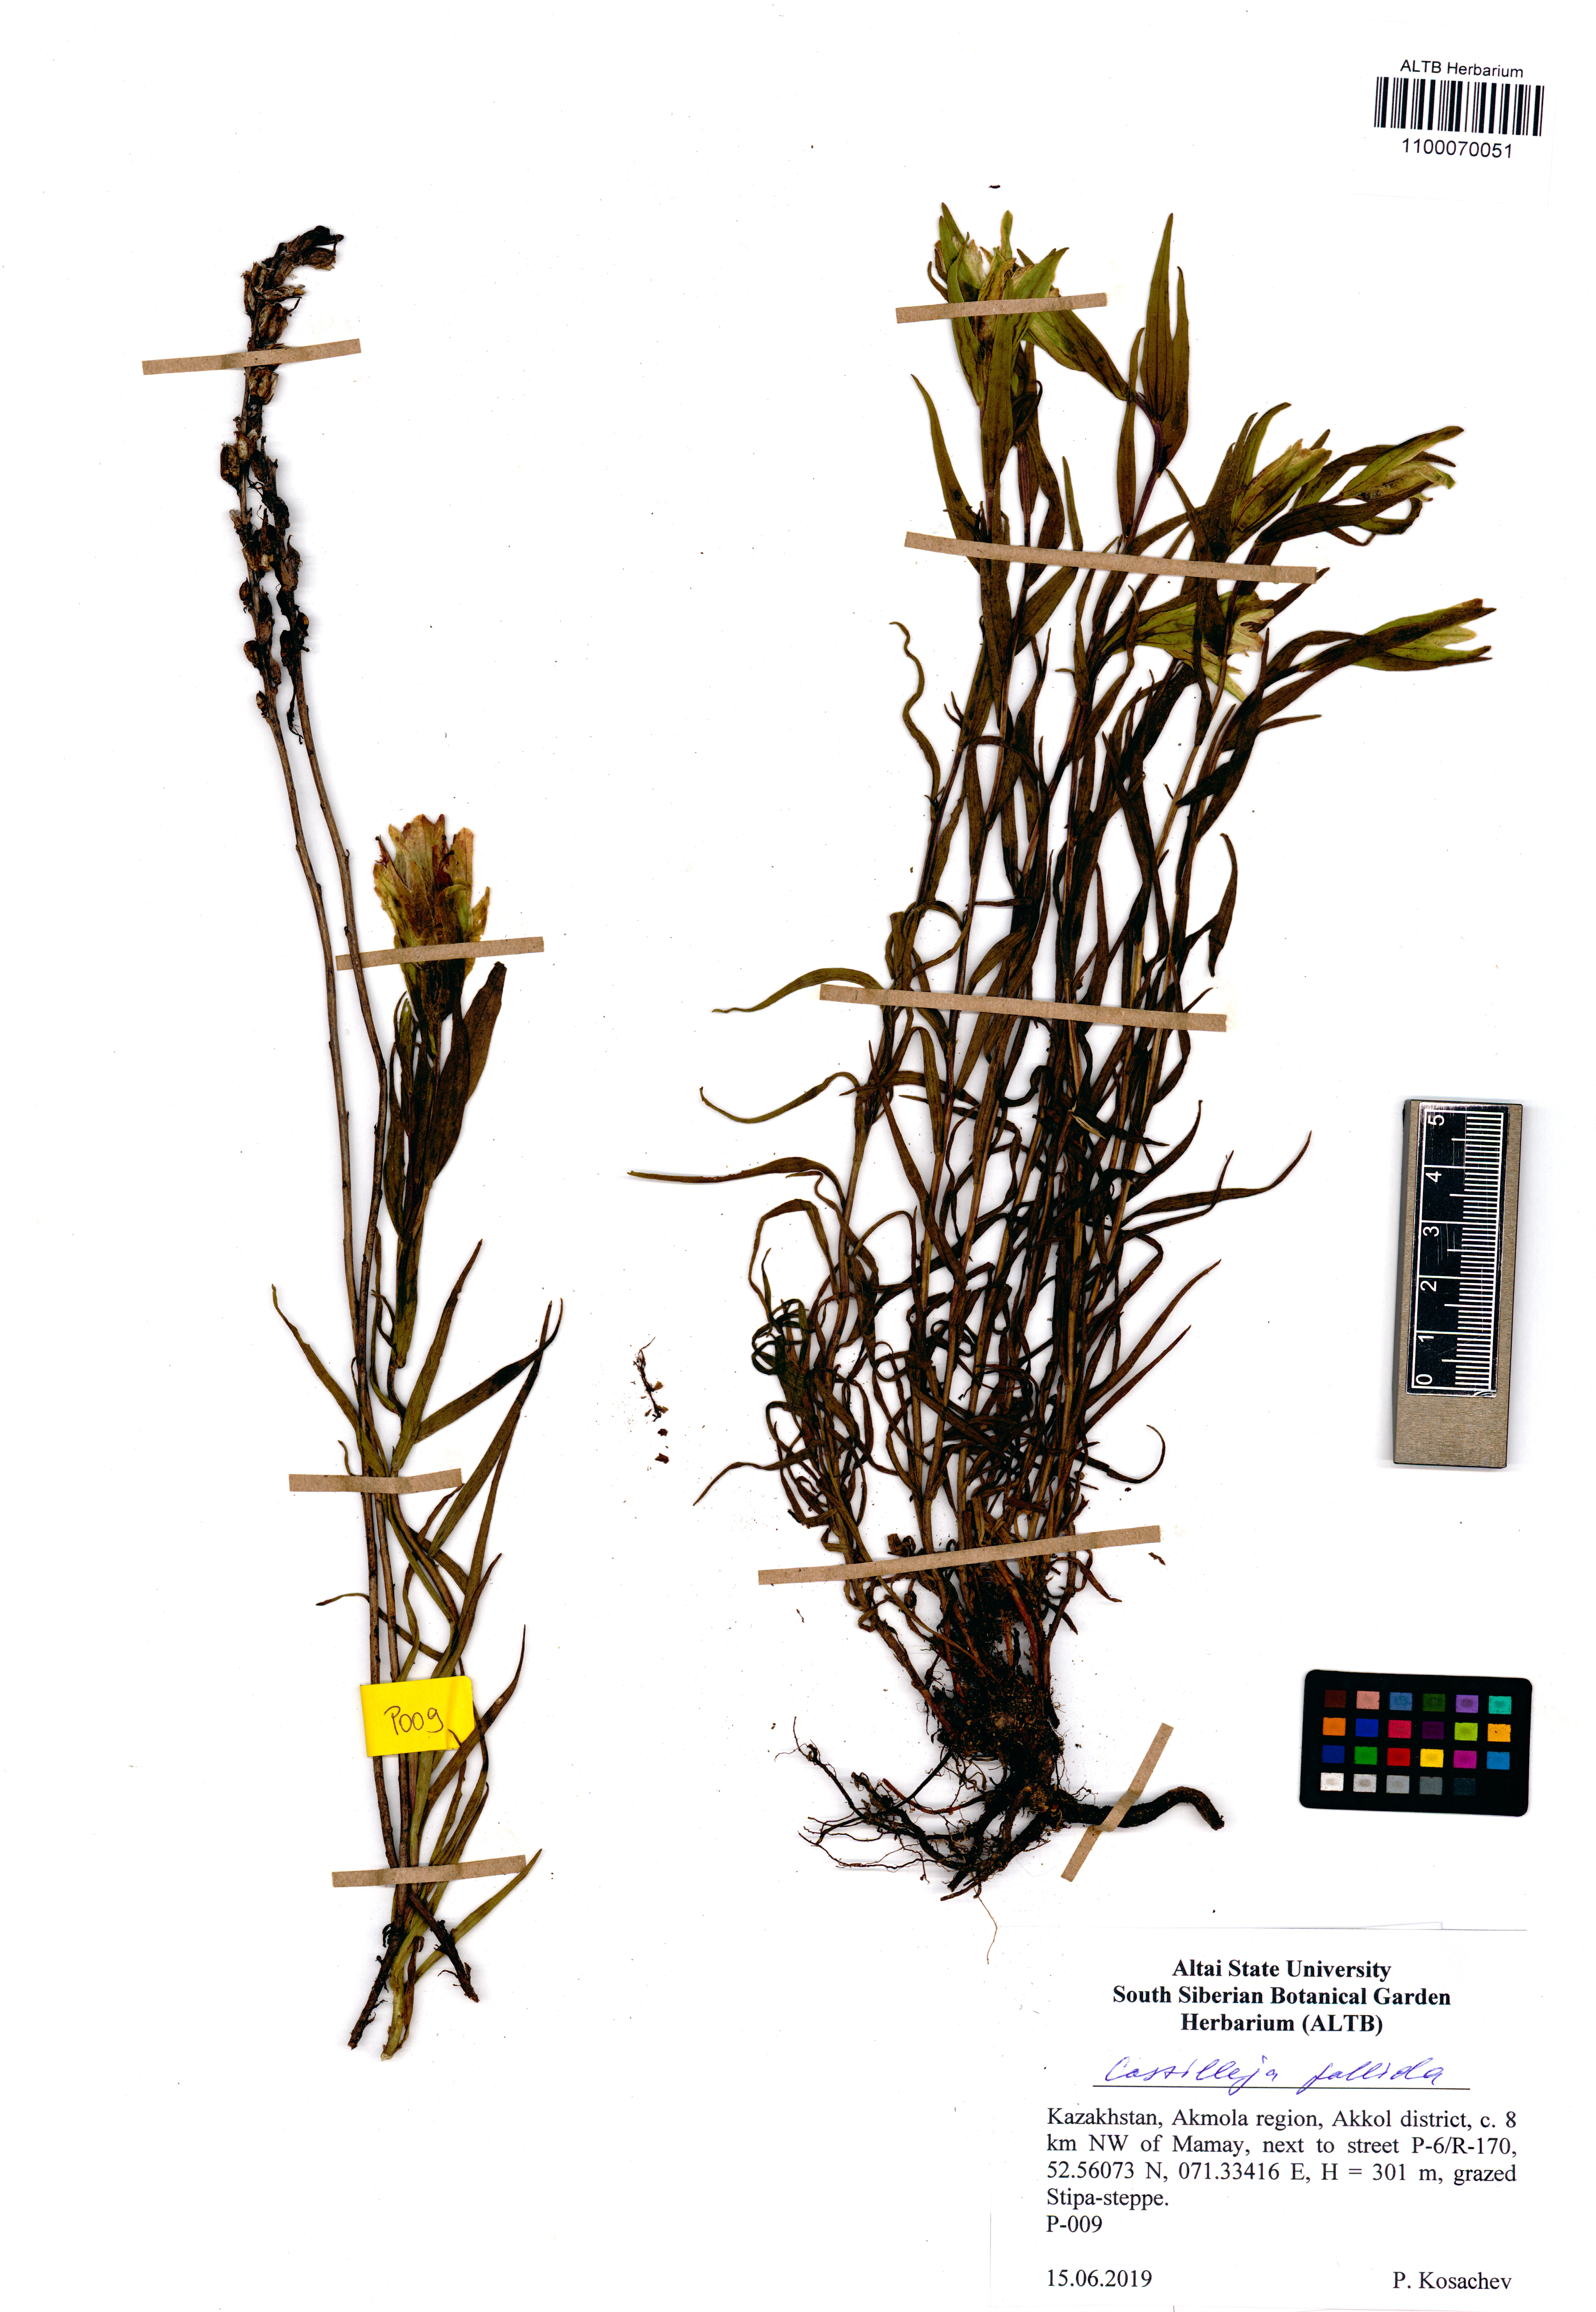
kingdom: Plantae
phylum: Tracheophyta
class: Magnoliopsida
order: Lamiales
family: Orobanchaceae
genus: Castilleja
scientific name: Castilleja pallida
